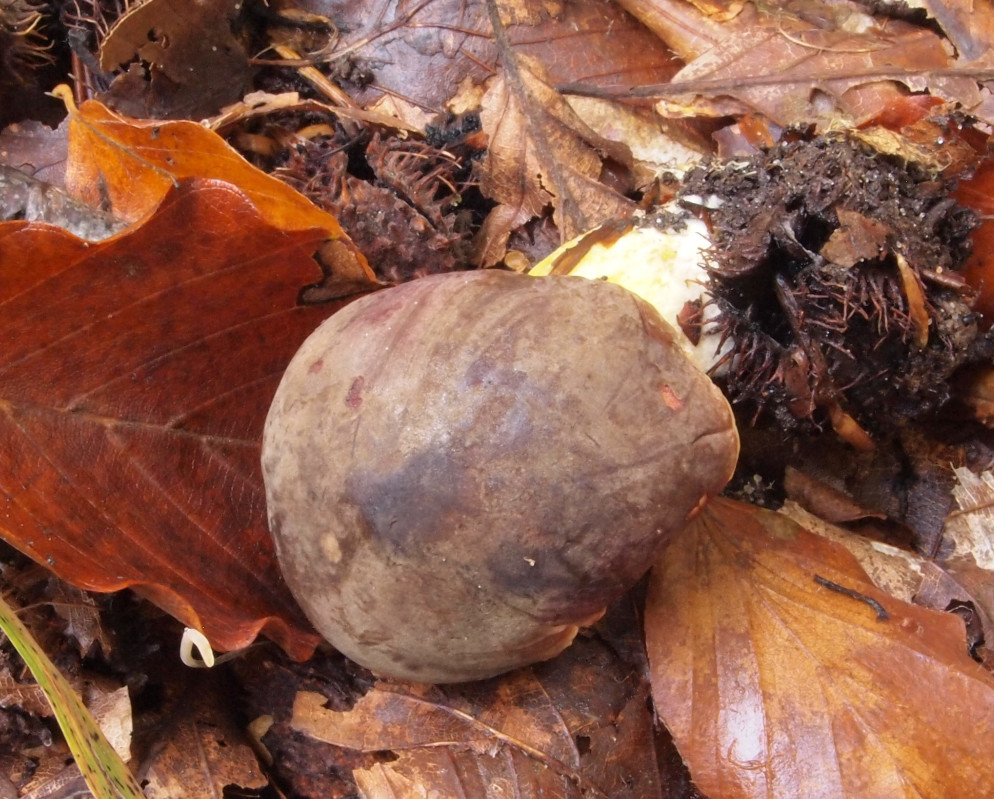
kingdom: Fungi
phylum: Basidiomycota
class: Agaricomycetes
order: Boletales
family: Boletaceae
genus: Xerocomellus
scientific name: Xerocomellus pruinatus
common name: dugget rørhat
